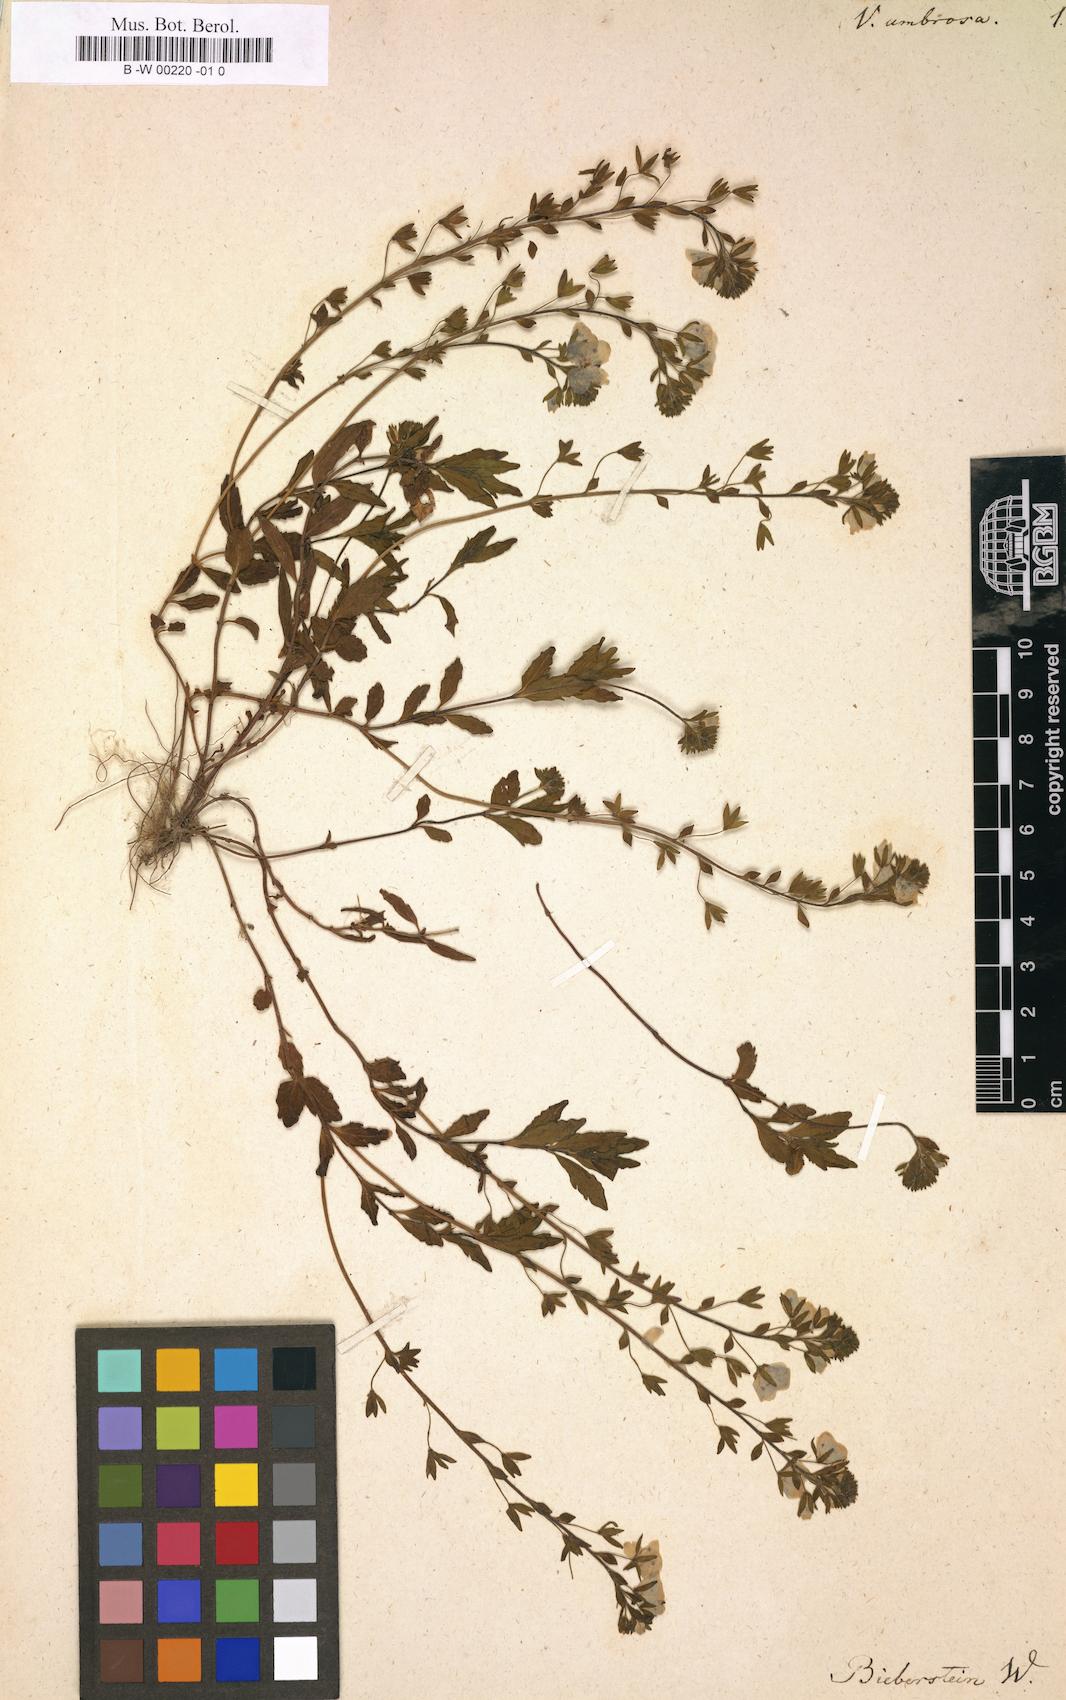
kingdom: Plantae
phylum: Tracheophyta
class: Magnoliopsida
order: Lamiales
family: Plantaginaceae
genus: Veronica
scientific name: Veronica
